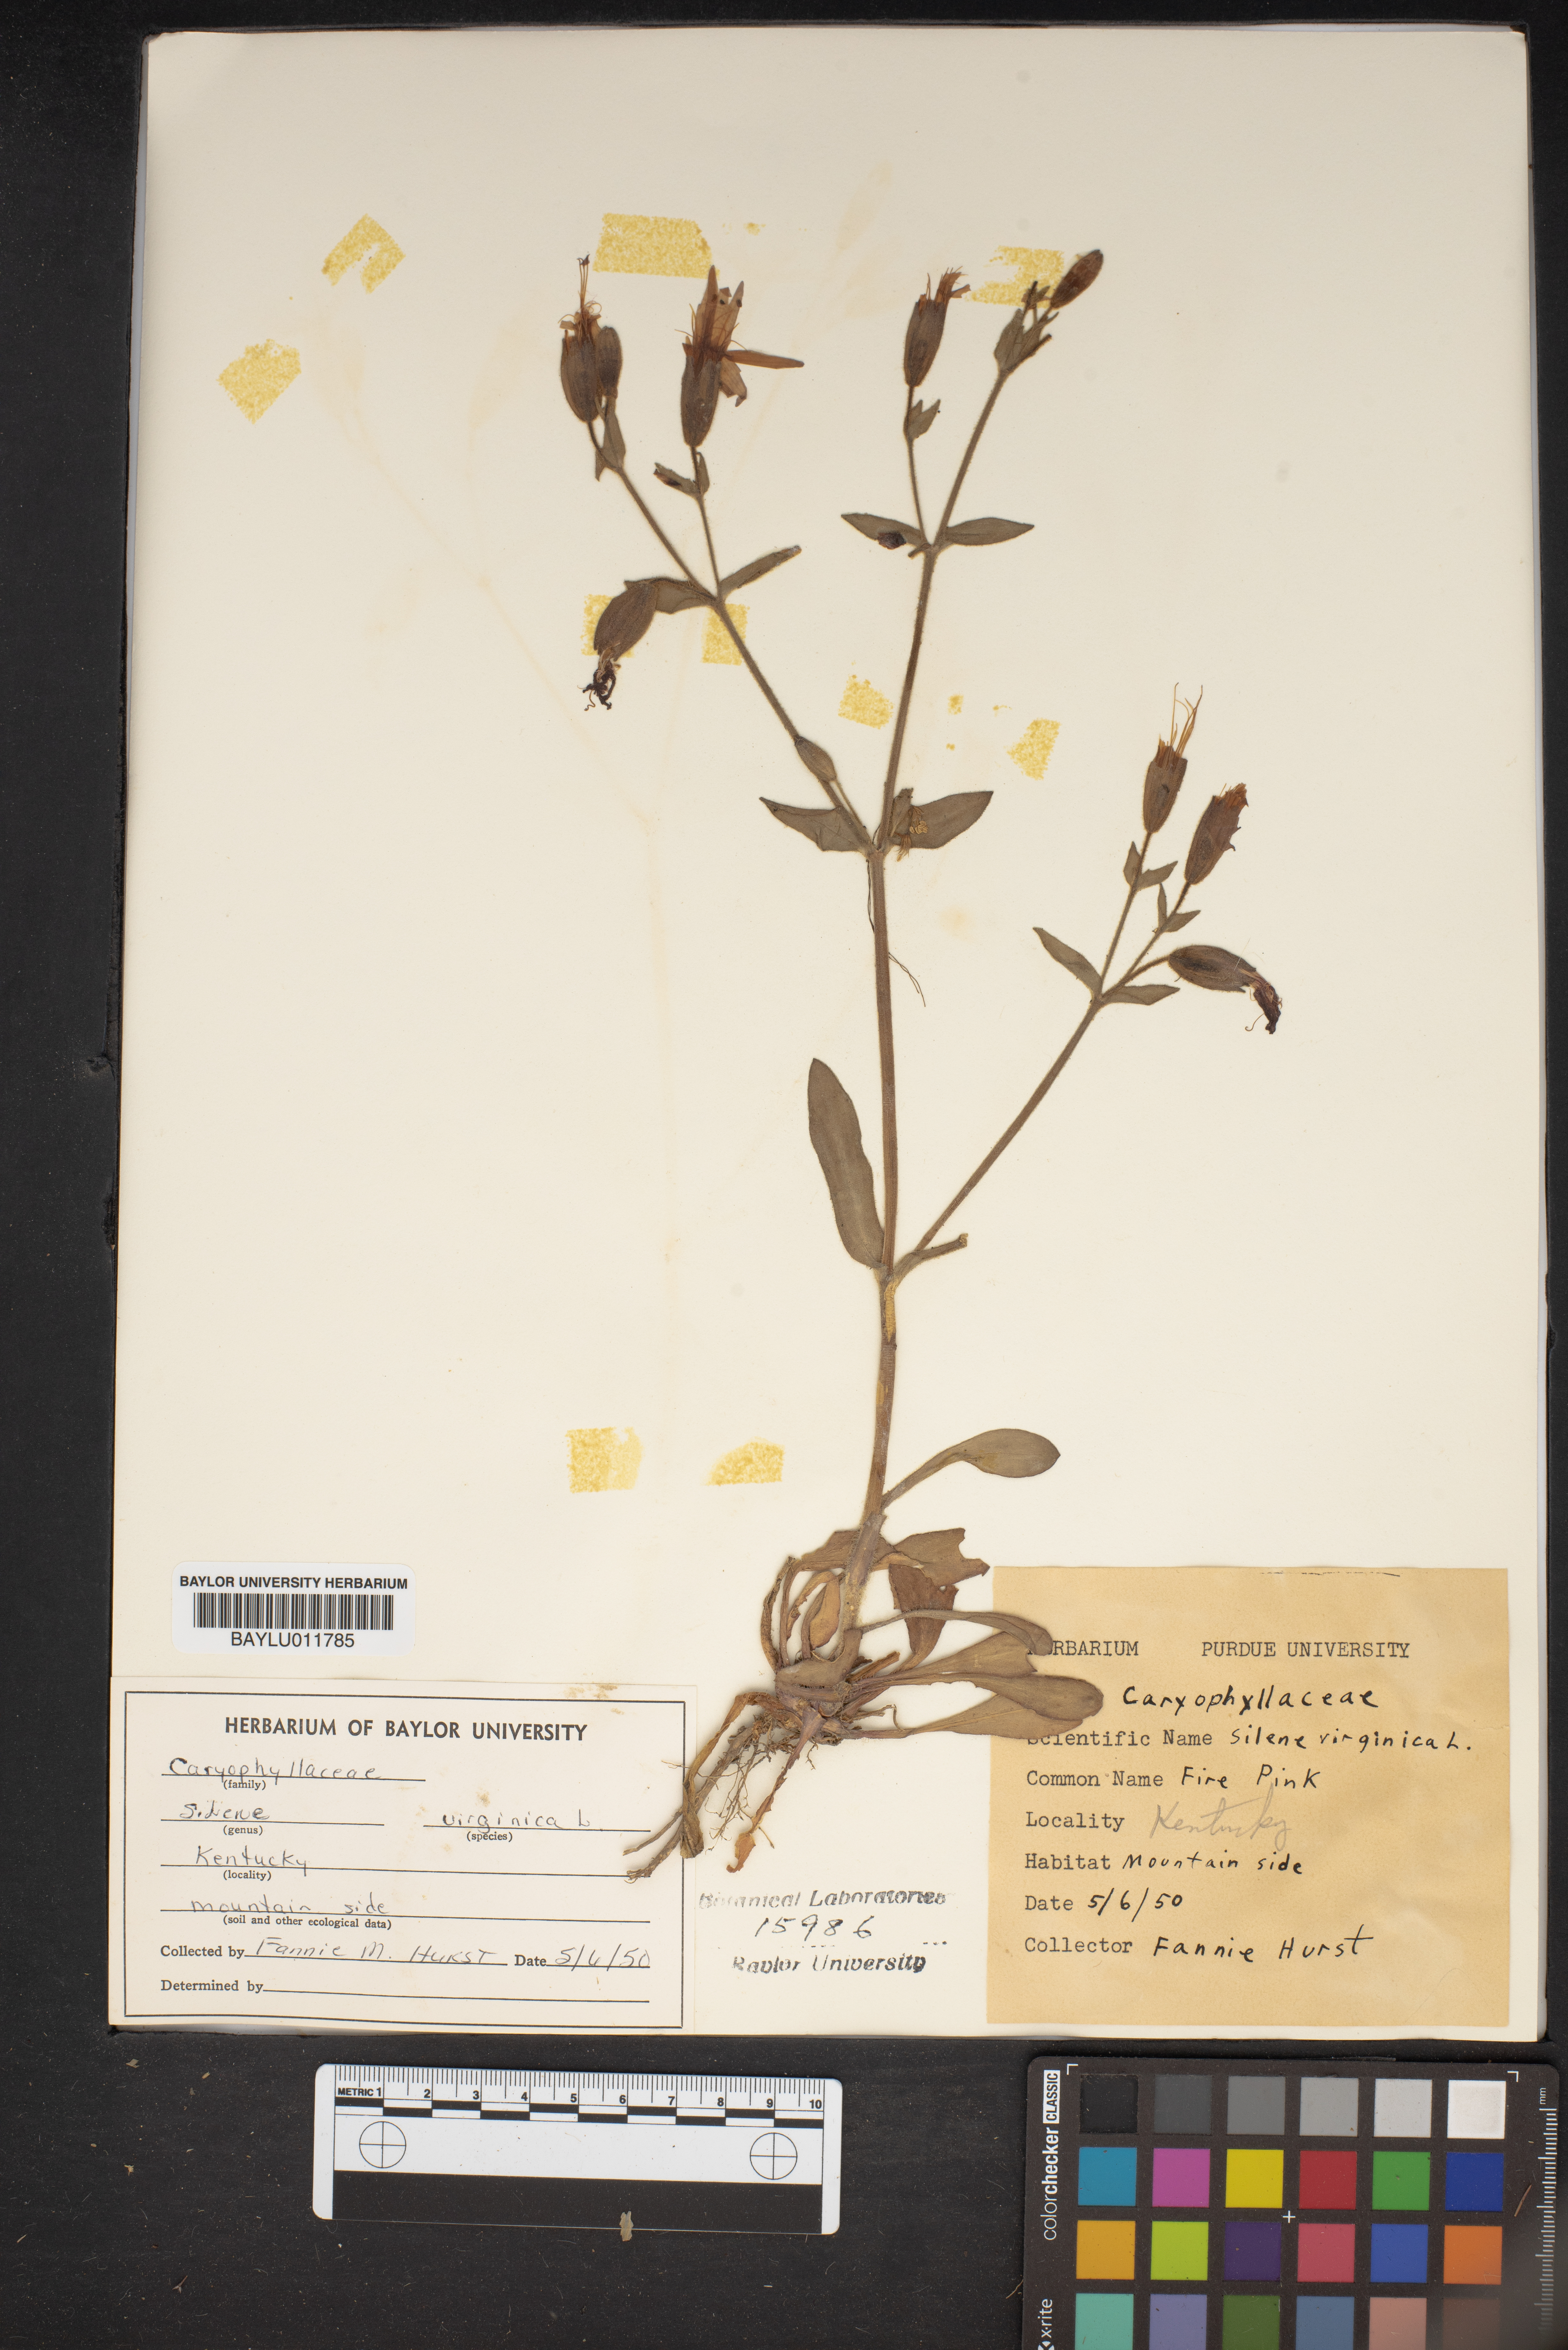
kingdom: Plantae
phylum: Tracheophyta
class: Magnoliopsida
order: Caryophyllales
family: Caryophyllaceae
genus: Silene
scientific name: Silene virginica
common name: Fire-pink
